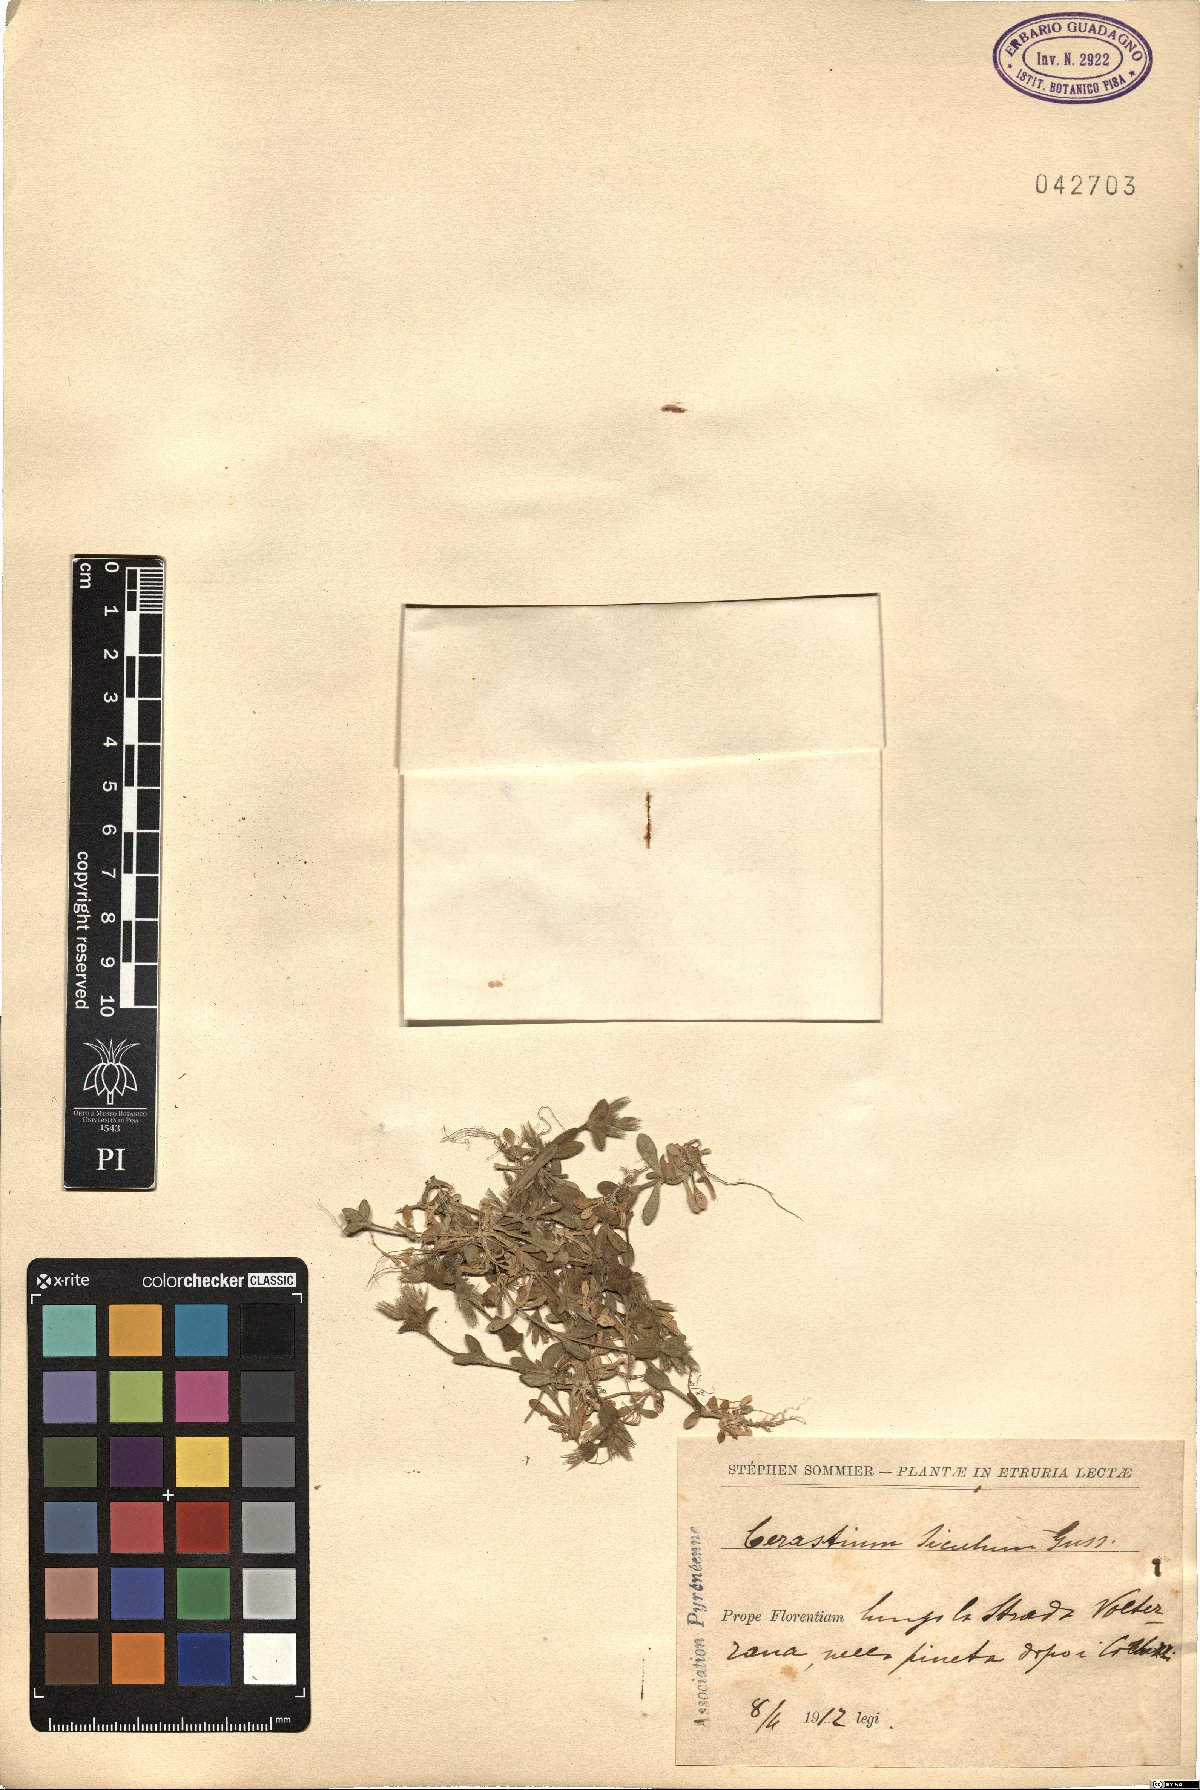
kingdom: Plantae
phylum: Tracheophyta
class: Magnoliopsida
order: Caryophyllales
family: Caryophyllaceae
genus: Cerastium
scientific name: Cerastium siculum
